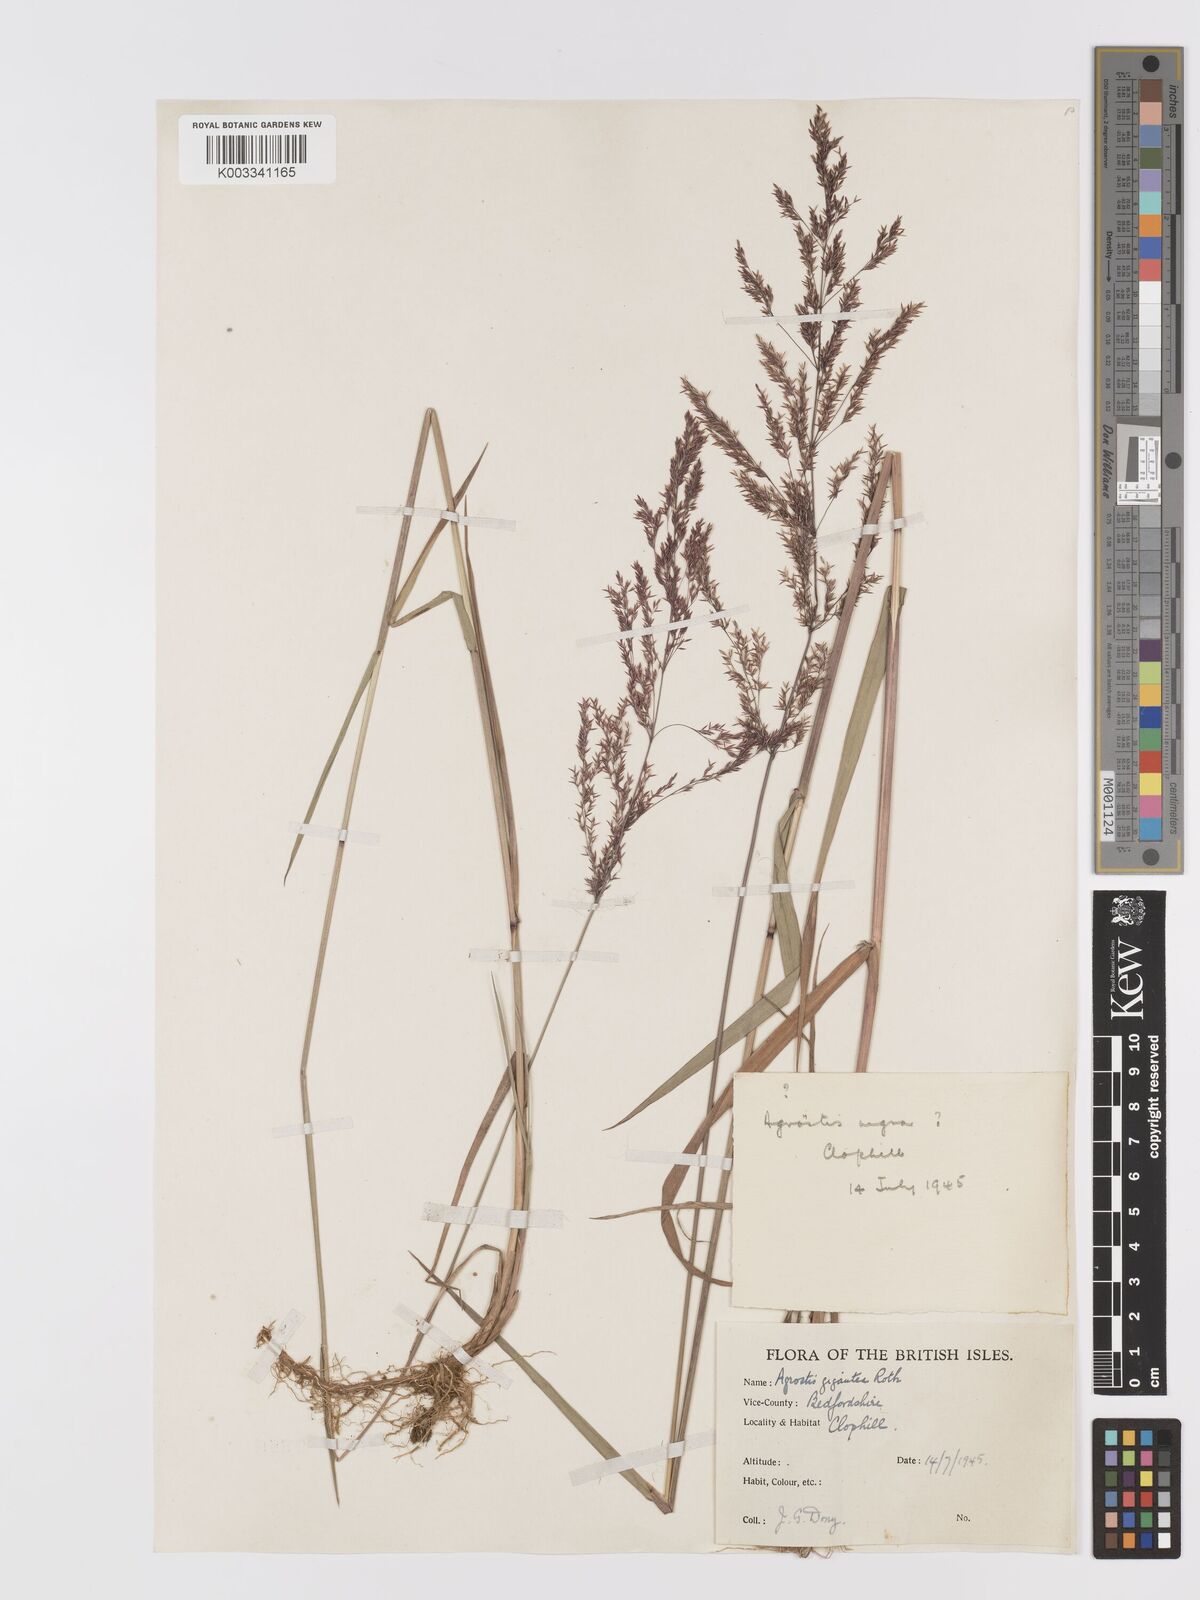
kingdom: Plantae
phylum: Tracheophyta
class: Liliopsida
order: Poales
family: Poaceae
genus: Agrostis
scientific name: Agrostis gigantea
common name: Black bent
